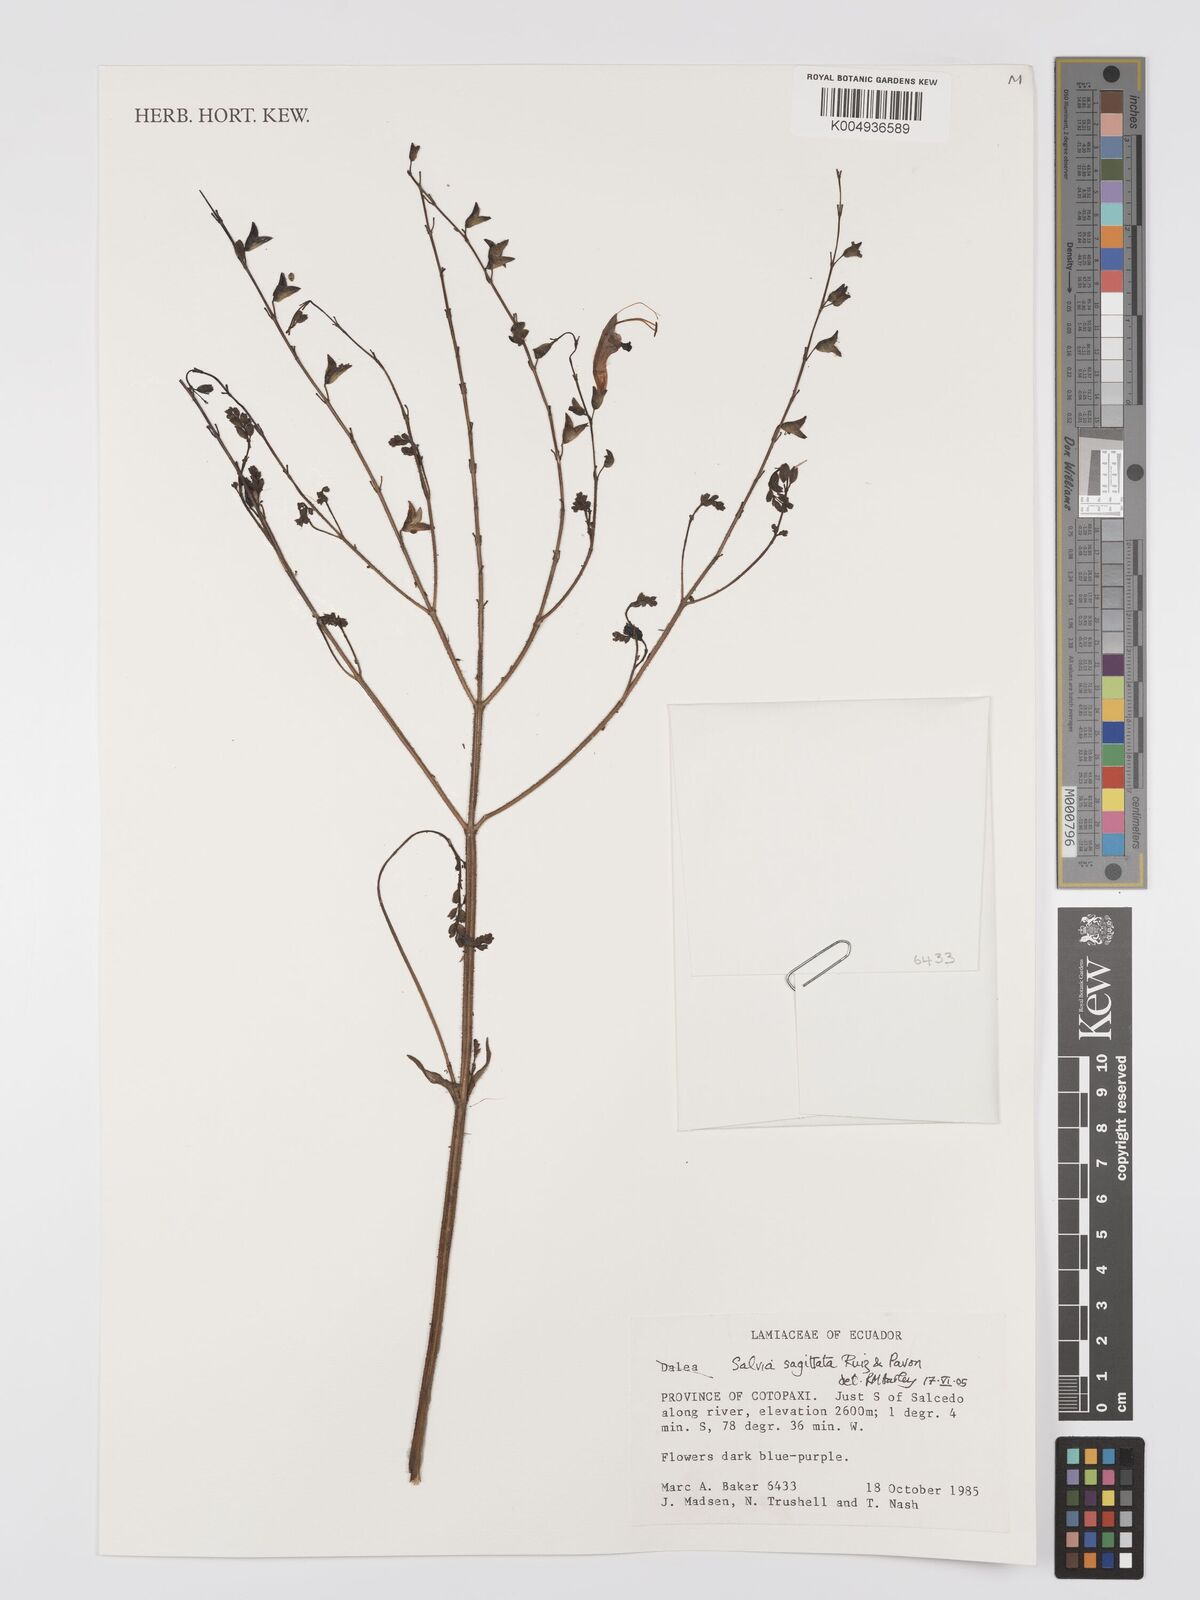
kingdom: Plantae
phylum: Tracheophyta
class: Magnoliopsida
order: Lamiales
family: Lamiaceae
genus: Salvia
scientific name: Salvia sagittata
